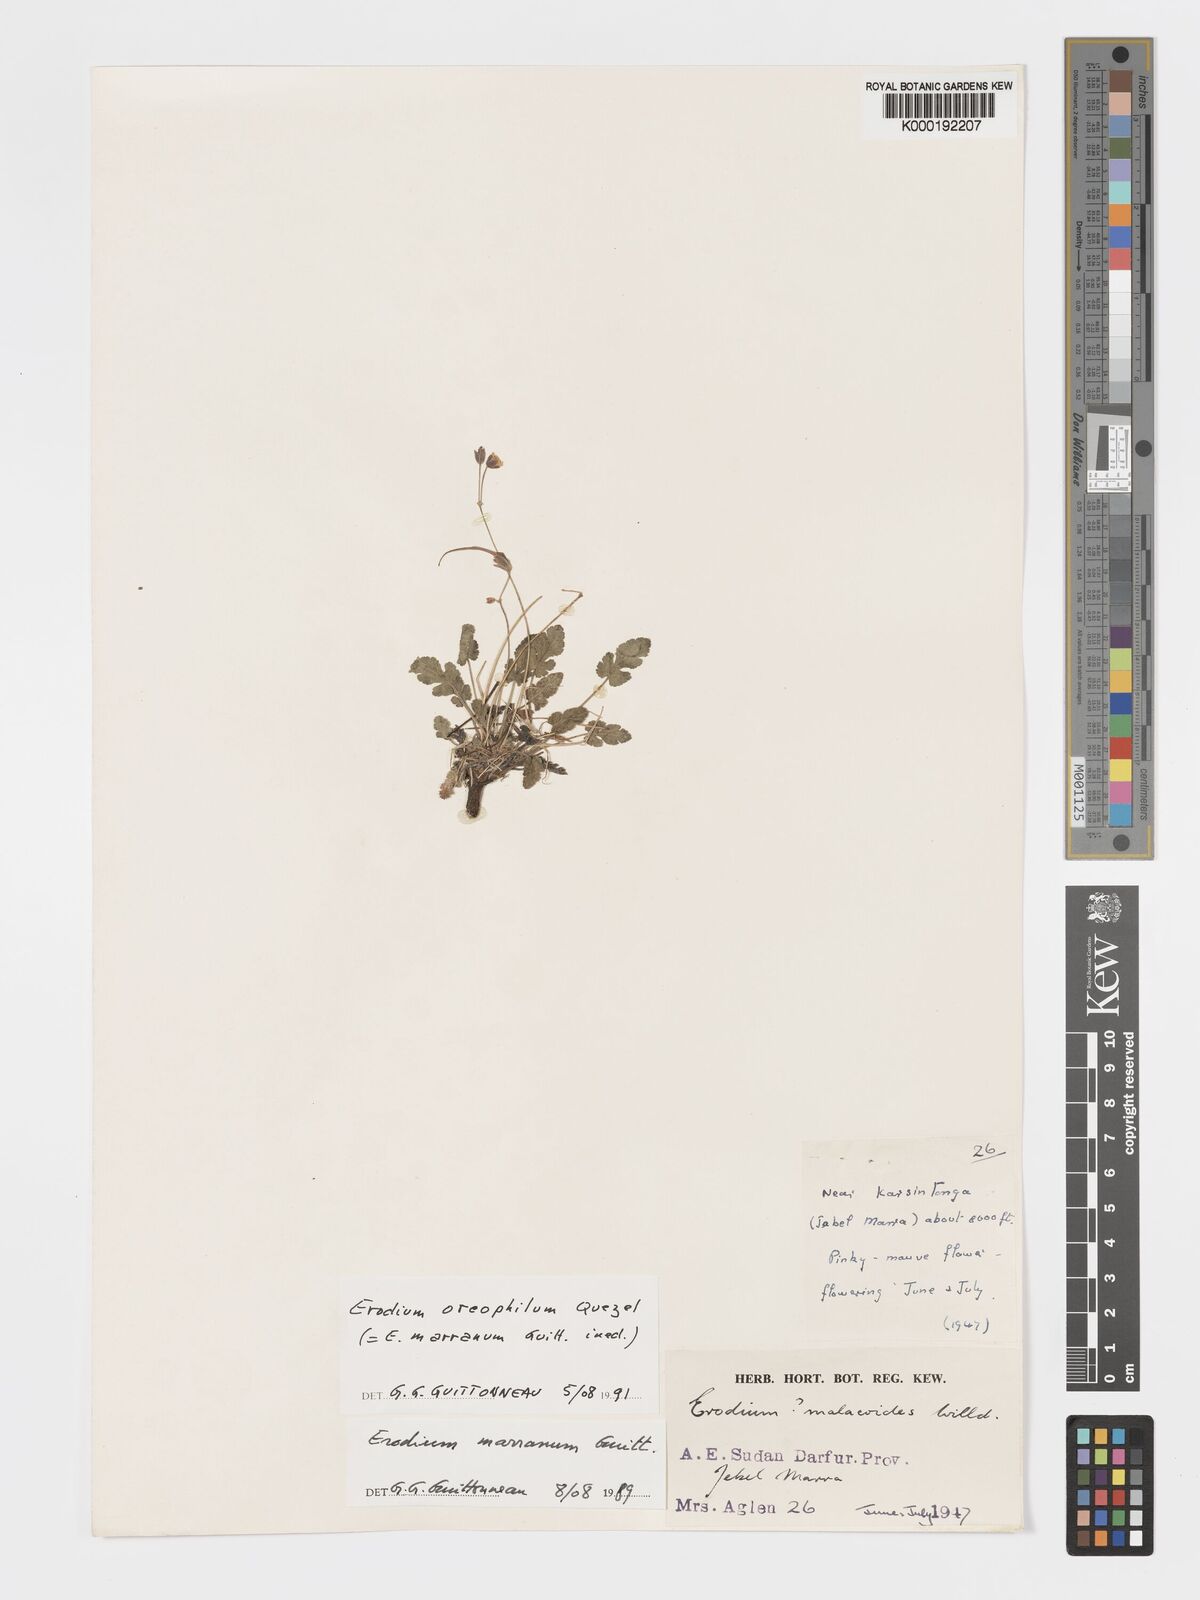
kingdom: Plantae
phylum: Tracheophyta
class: Magnoliopsida
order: Geraniales
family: Geraniaceae
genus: Erodium
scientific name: Erodium oreophilum
